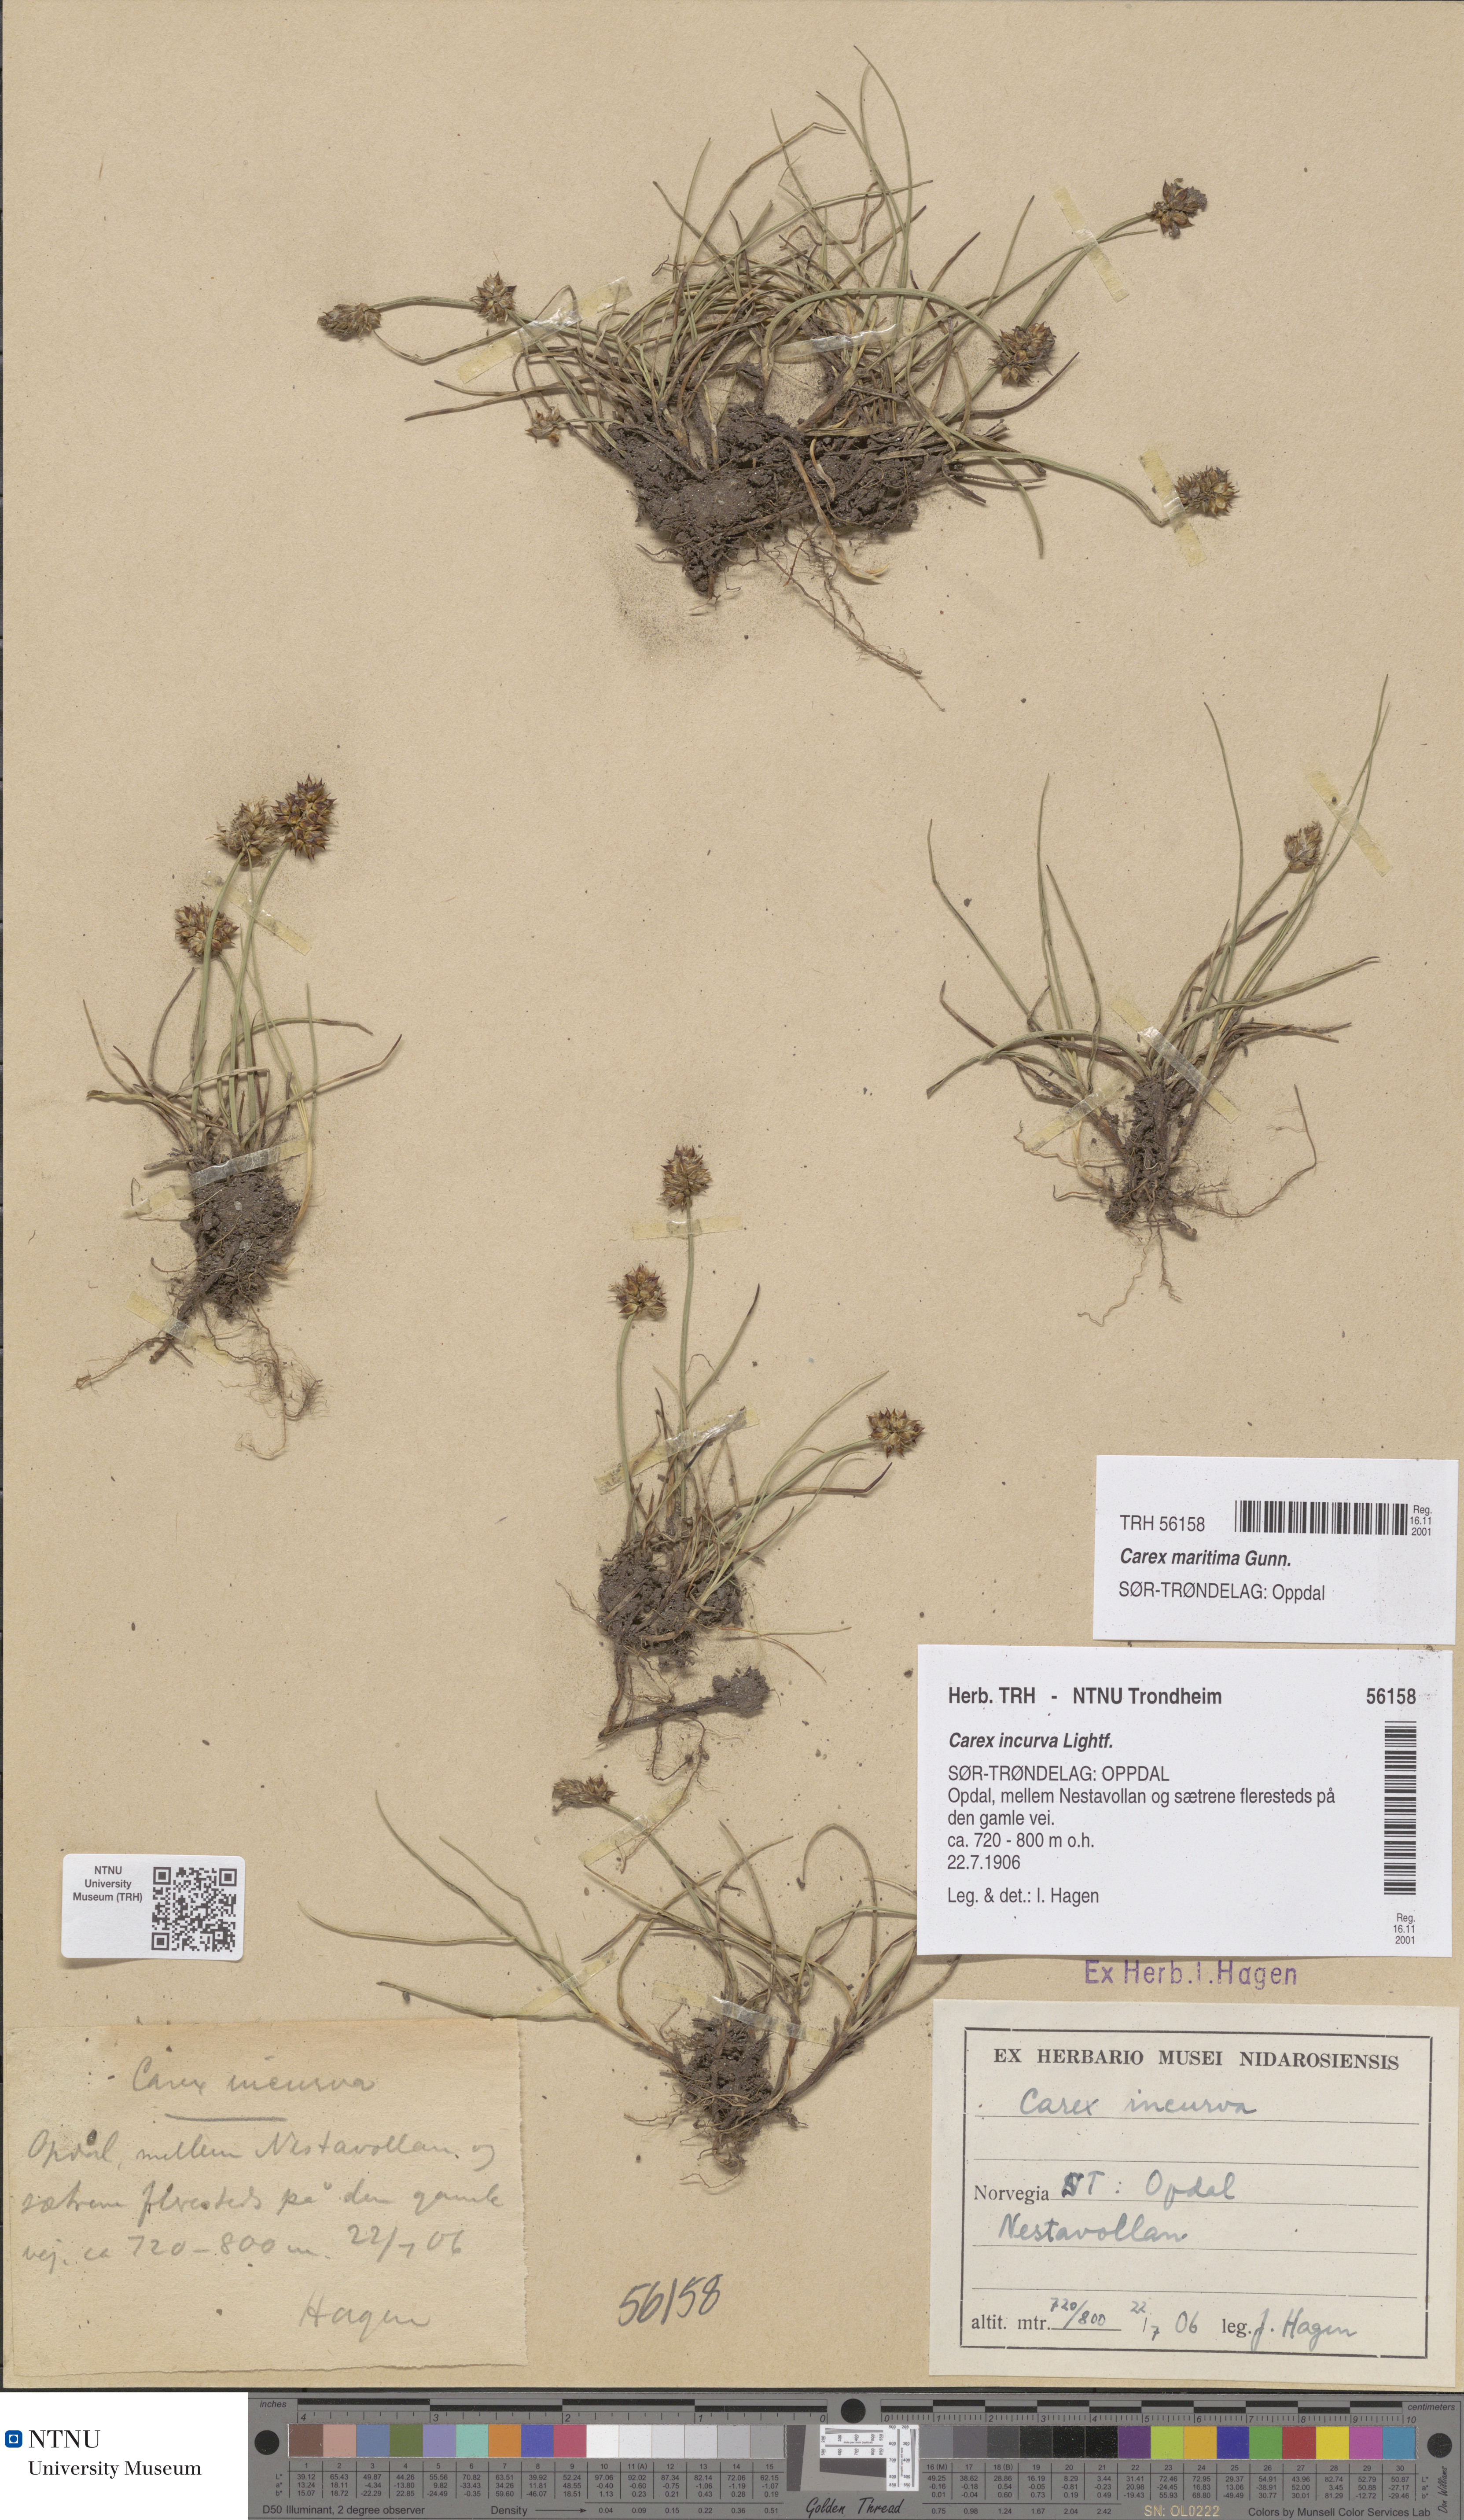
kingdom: Plantae
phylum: Tracheophyta
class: Liliopsida
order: Poales
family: Cyperaceae
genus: Carex
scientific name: Carex maritima
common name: Curved sedge
